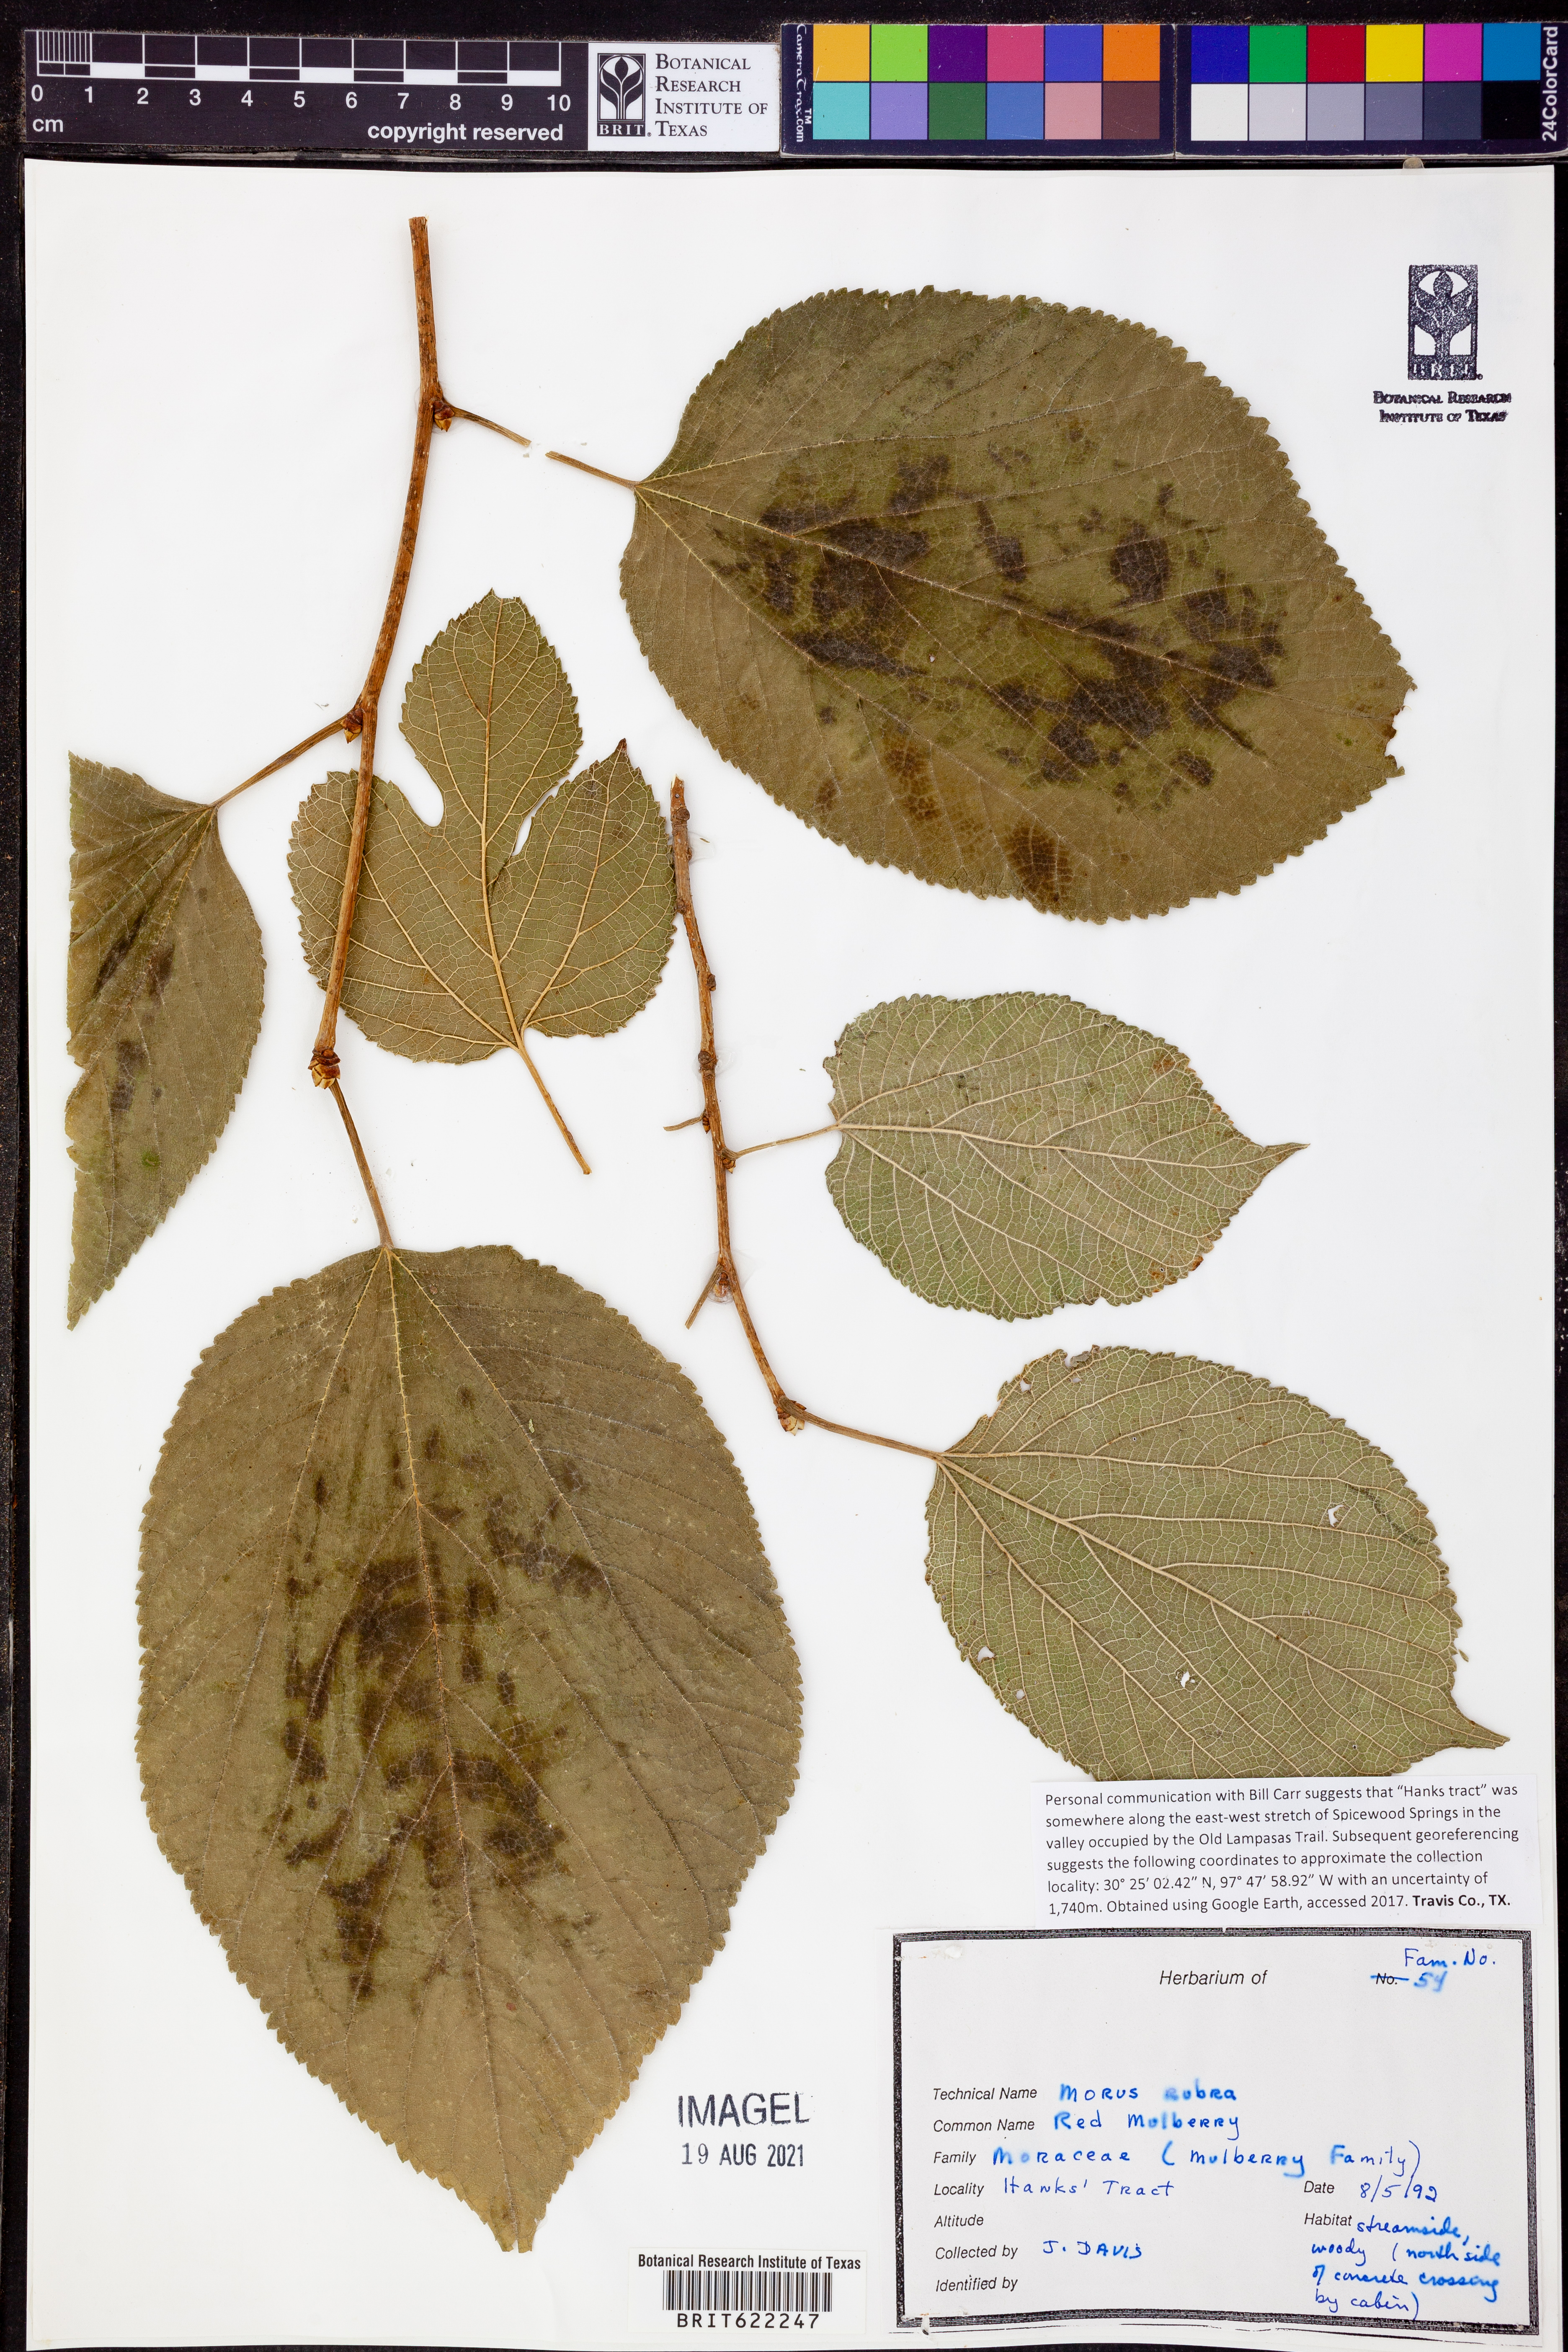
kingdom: Plantae
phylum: Tracheophyta
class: Magnoliopsida
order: Rosales
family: Moraceae
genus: Morus
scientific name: Morus rubra
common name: Red mulberry
